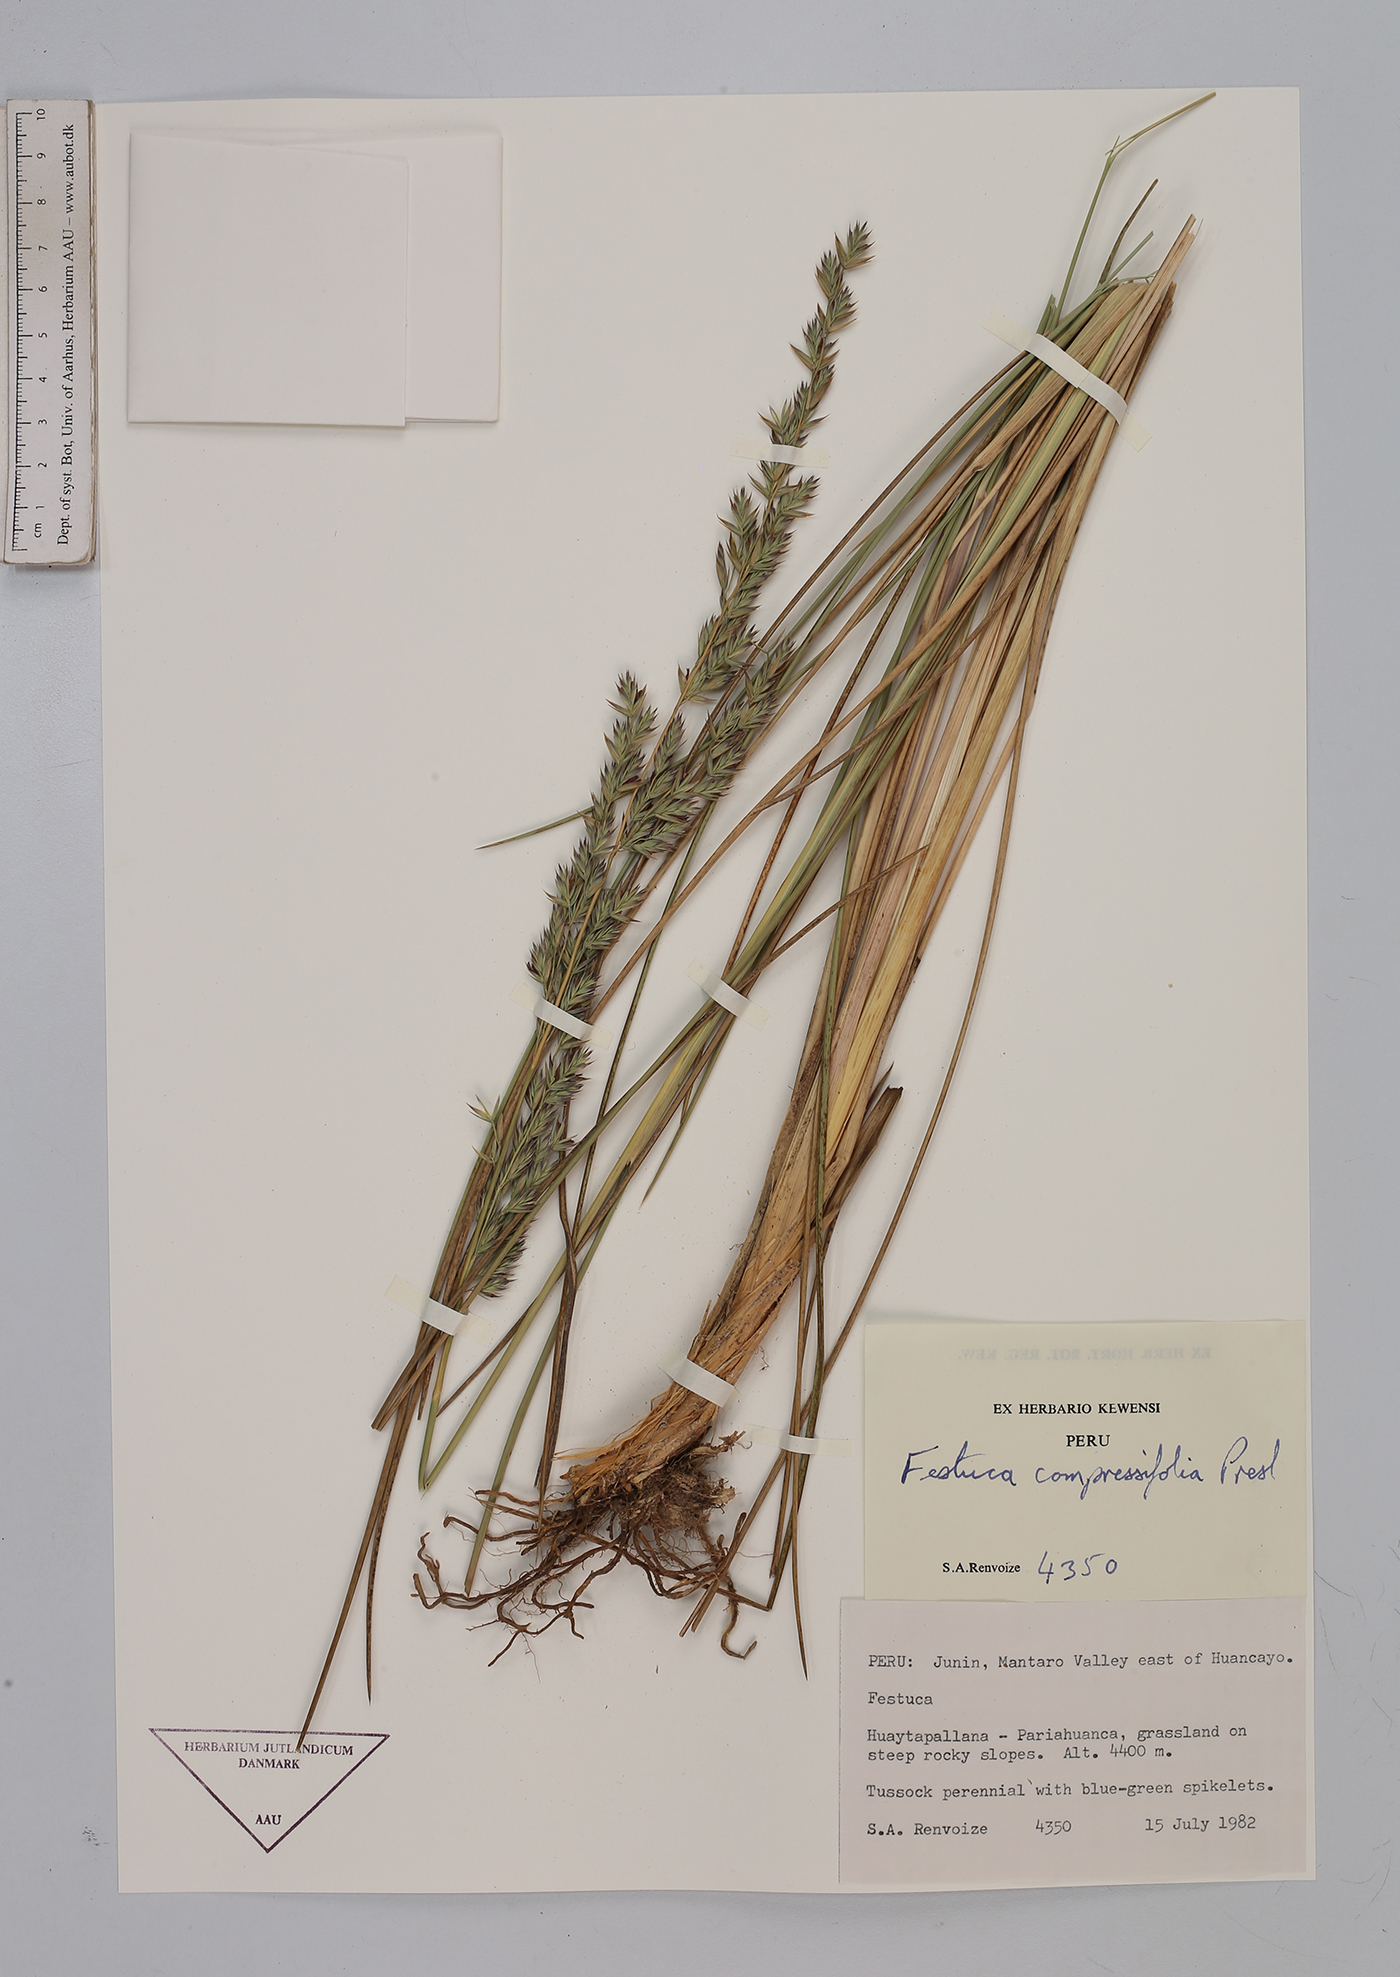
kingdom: Plantae
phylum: Tracheophyta
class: Liliopsida
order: Poales
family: Poaceae
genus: Festuca
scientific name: Festuca compressifolia
